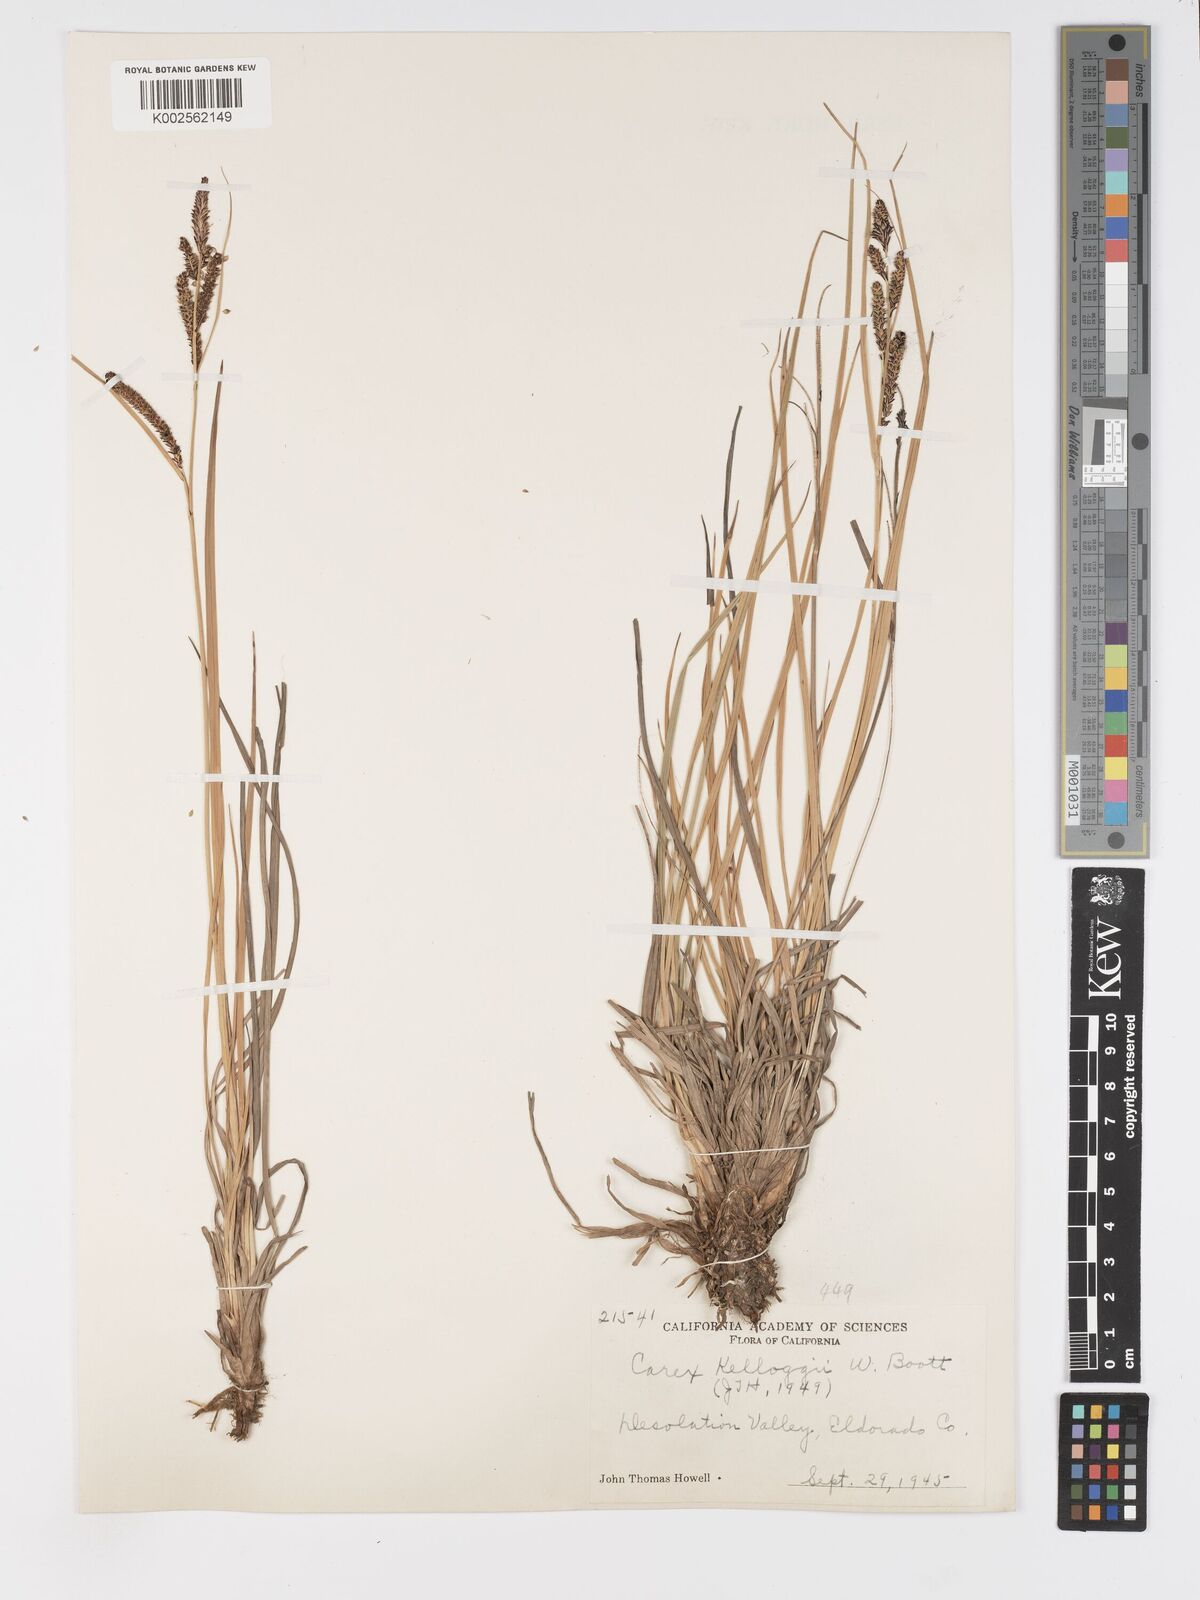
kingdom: Plantae
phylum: Tracheophyta
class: Liliopsida
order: Poales
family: Cyperaceae
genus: Carex
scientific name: Carex kelloggii
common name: Kellogg's sedge
